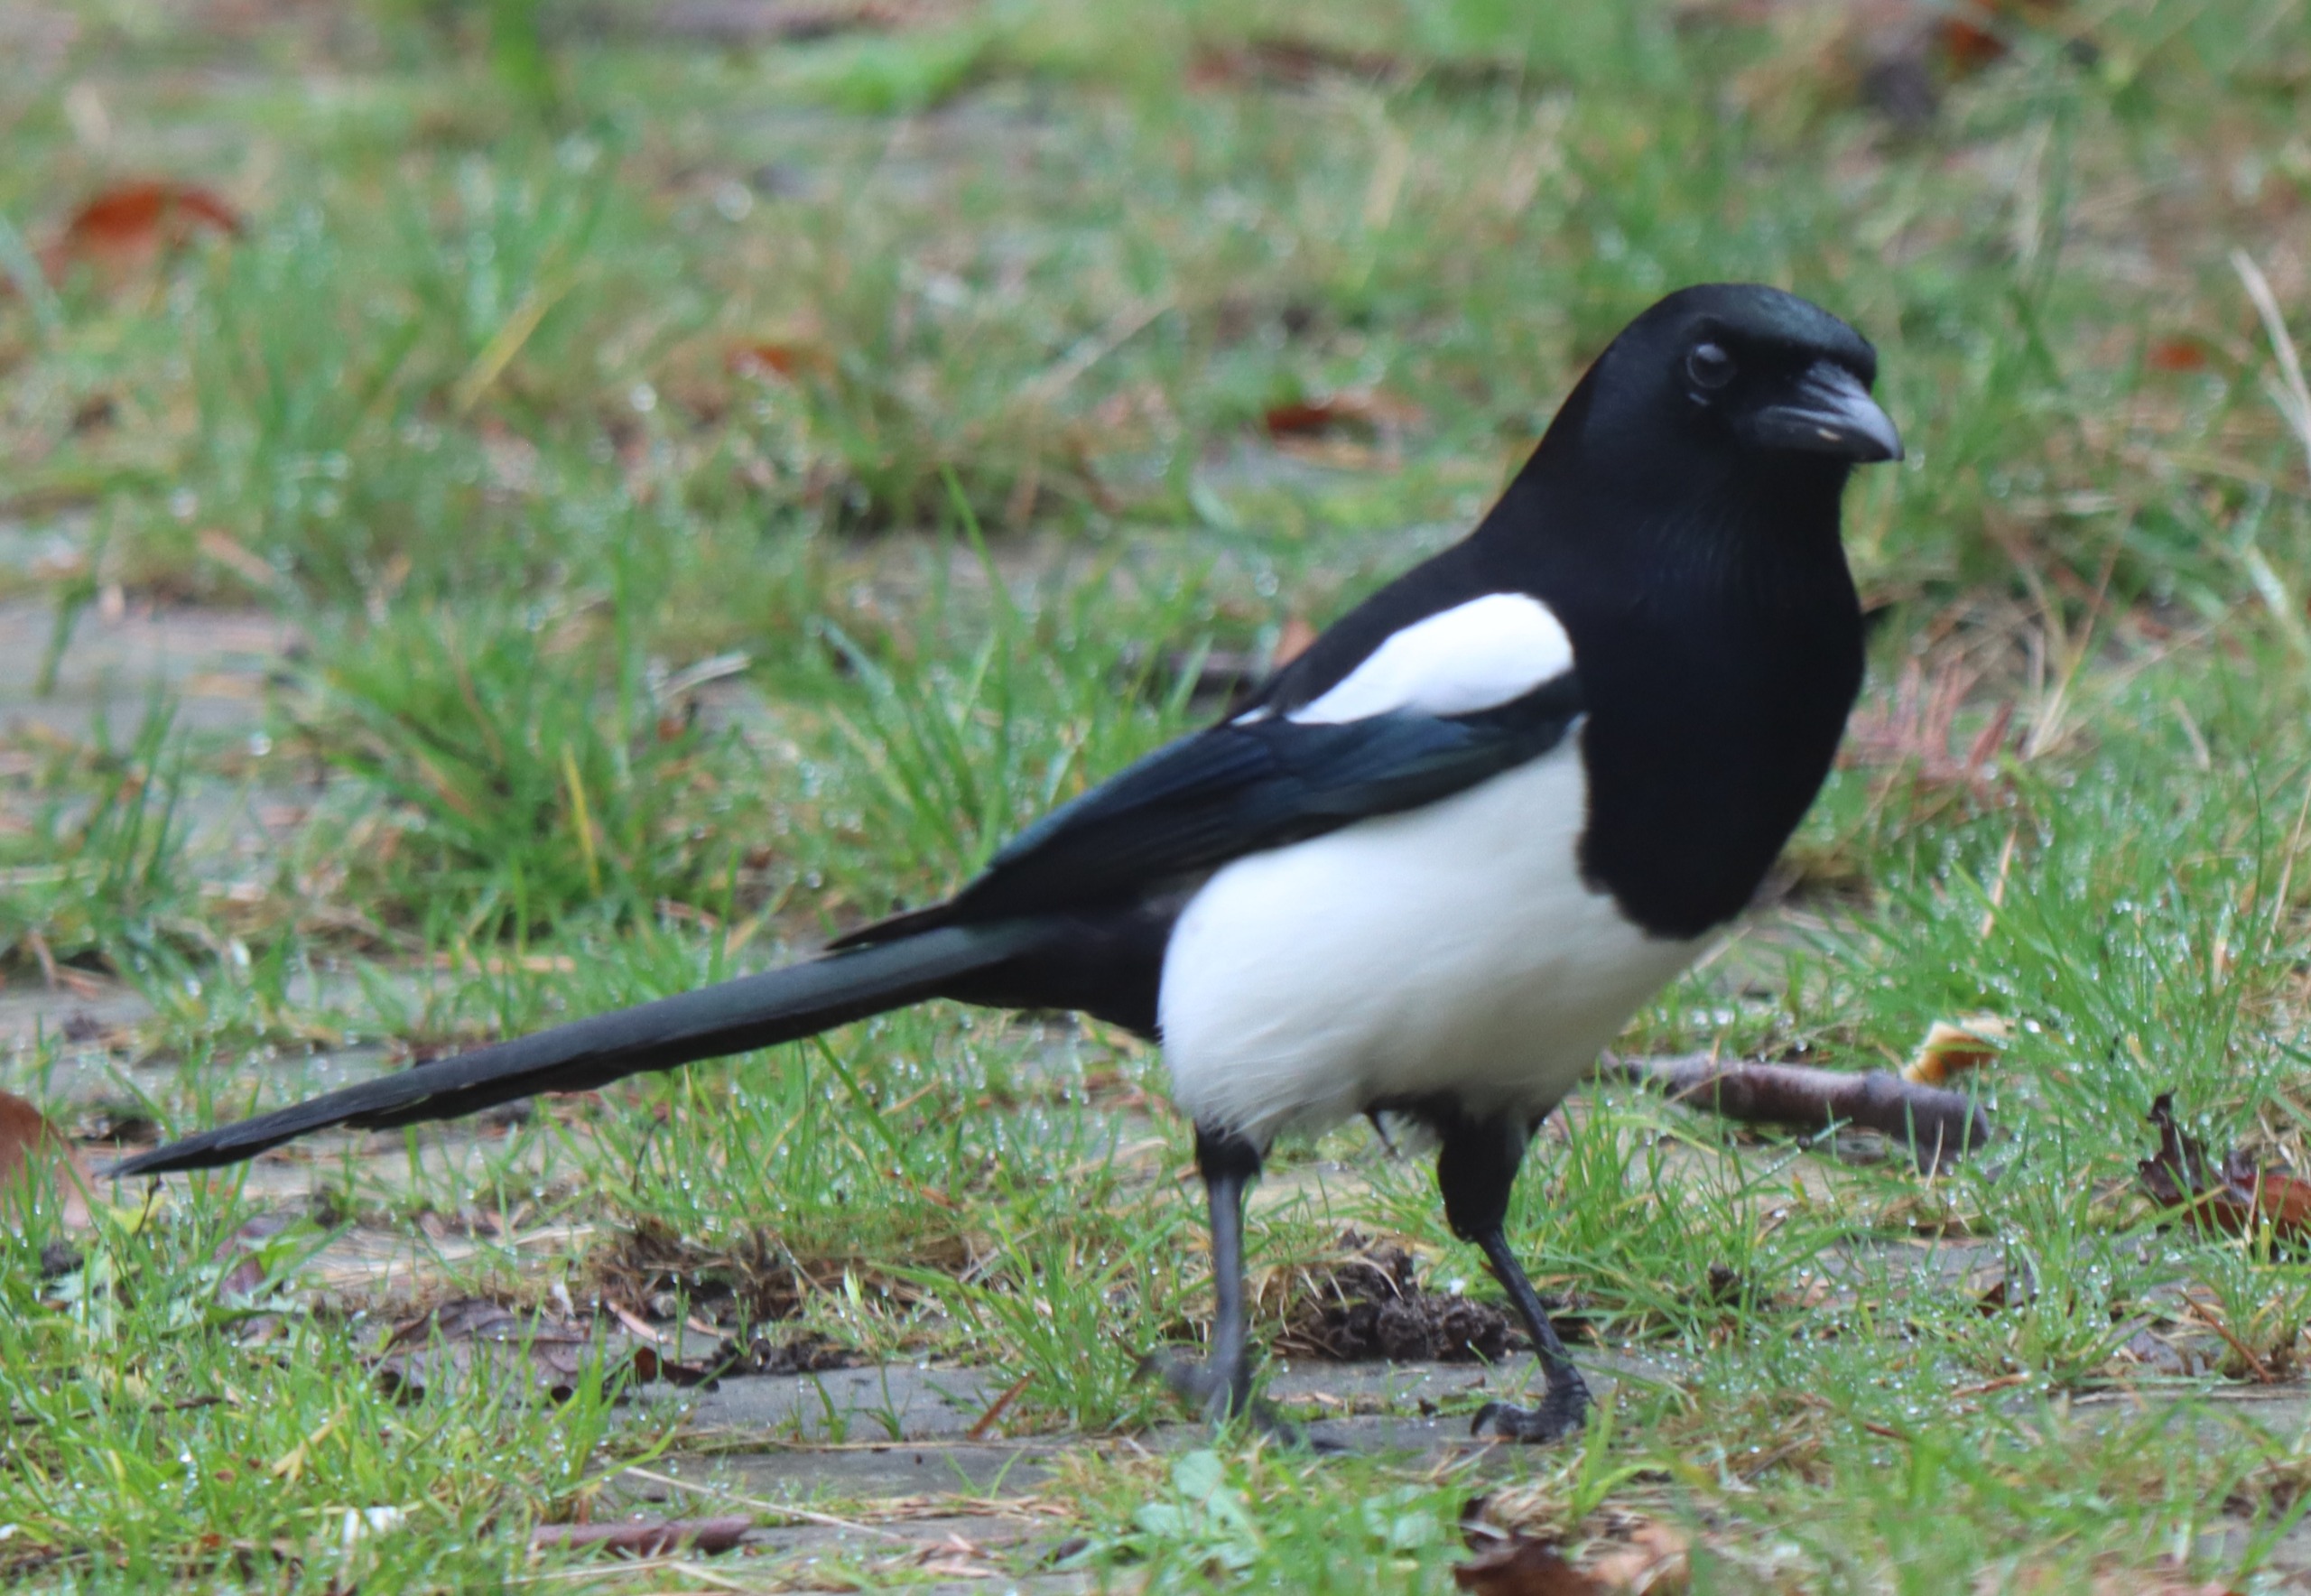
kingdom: Animalia
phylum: Chordata
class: Aves
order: Passeriformes
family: Corvidae
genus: Pica
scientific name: Pica pica
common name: Husskade
